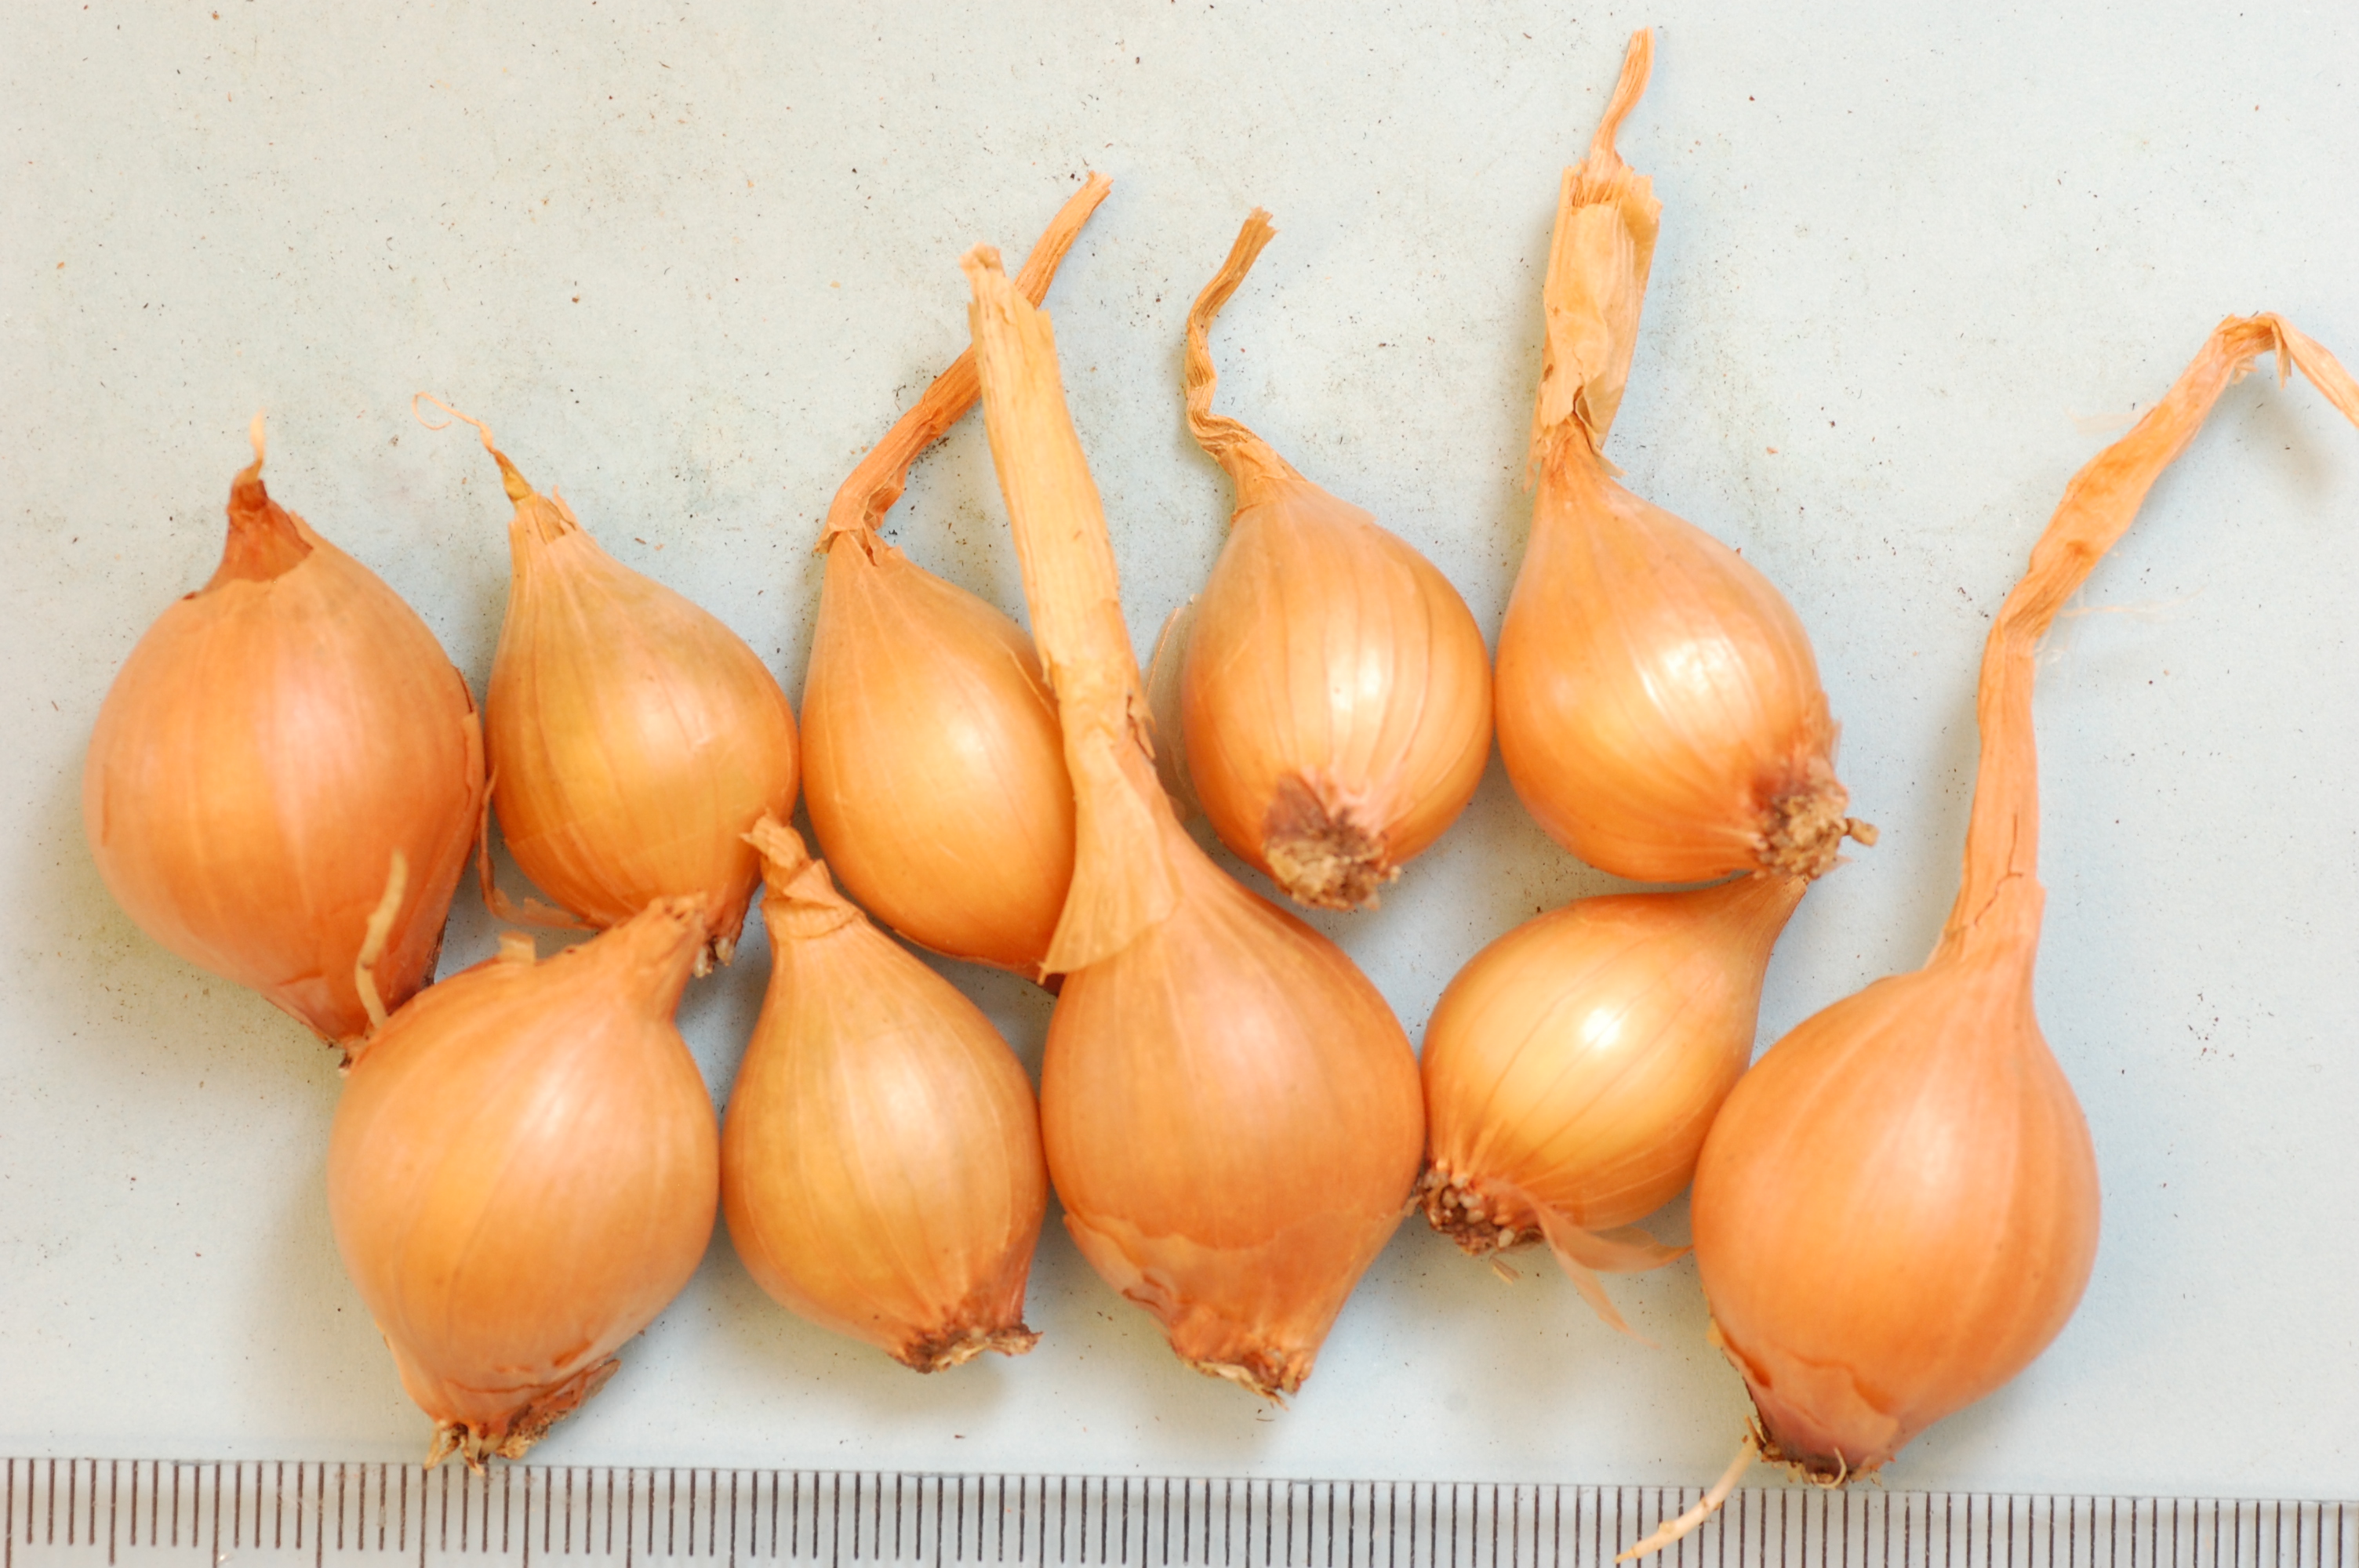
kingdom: Plantae
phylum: Tracheophyta
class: Liliopsida
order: Asparagales
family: Amaryllidaceae
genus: Allium
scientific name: Allium cepa
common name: Onion
